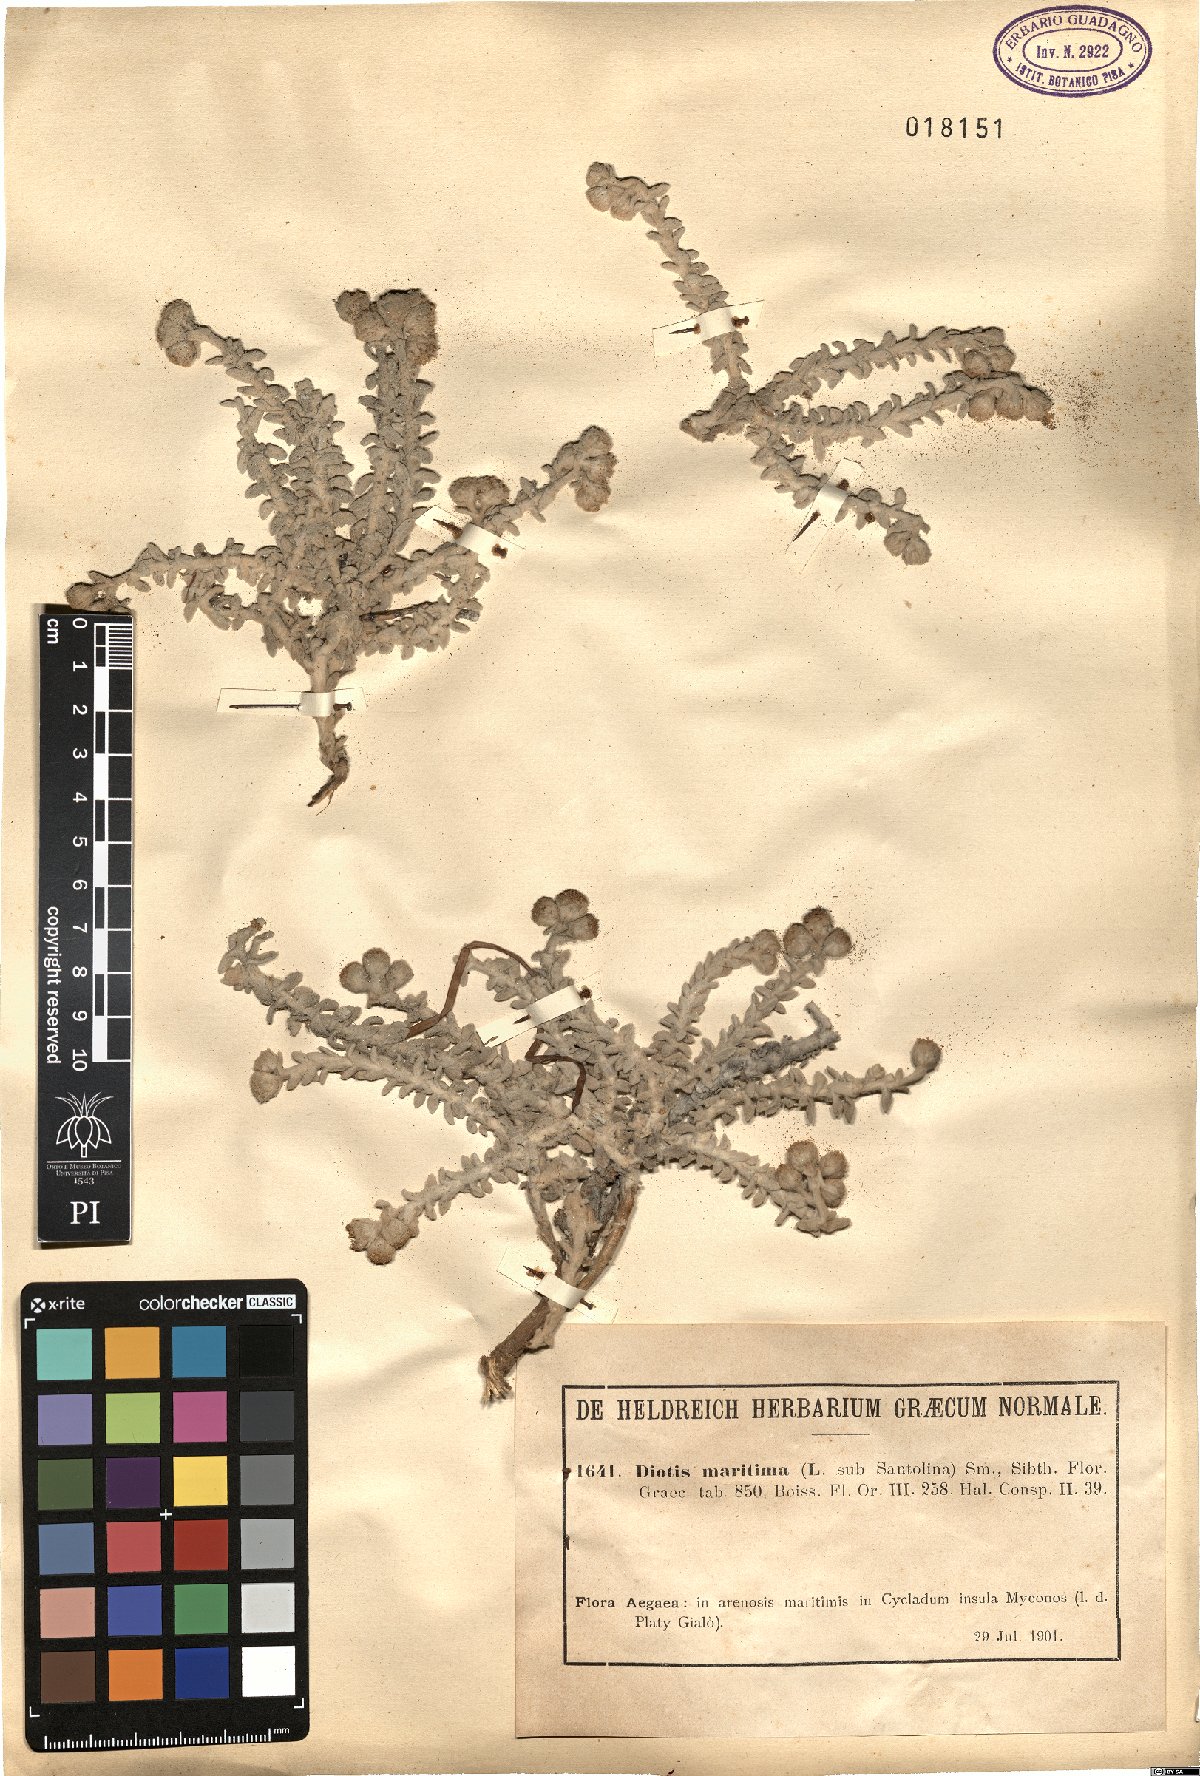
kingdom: Plantae
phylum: Tracheophyta
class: Magnoliopsida
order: Asterales
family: Asteraceae
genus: Achillea
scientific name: Achillea maritima
